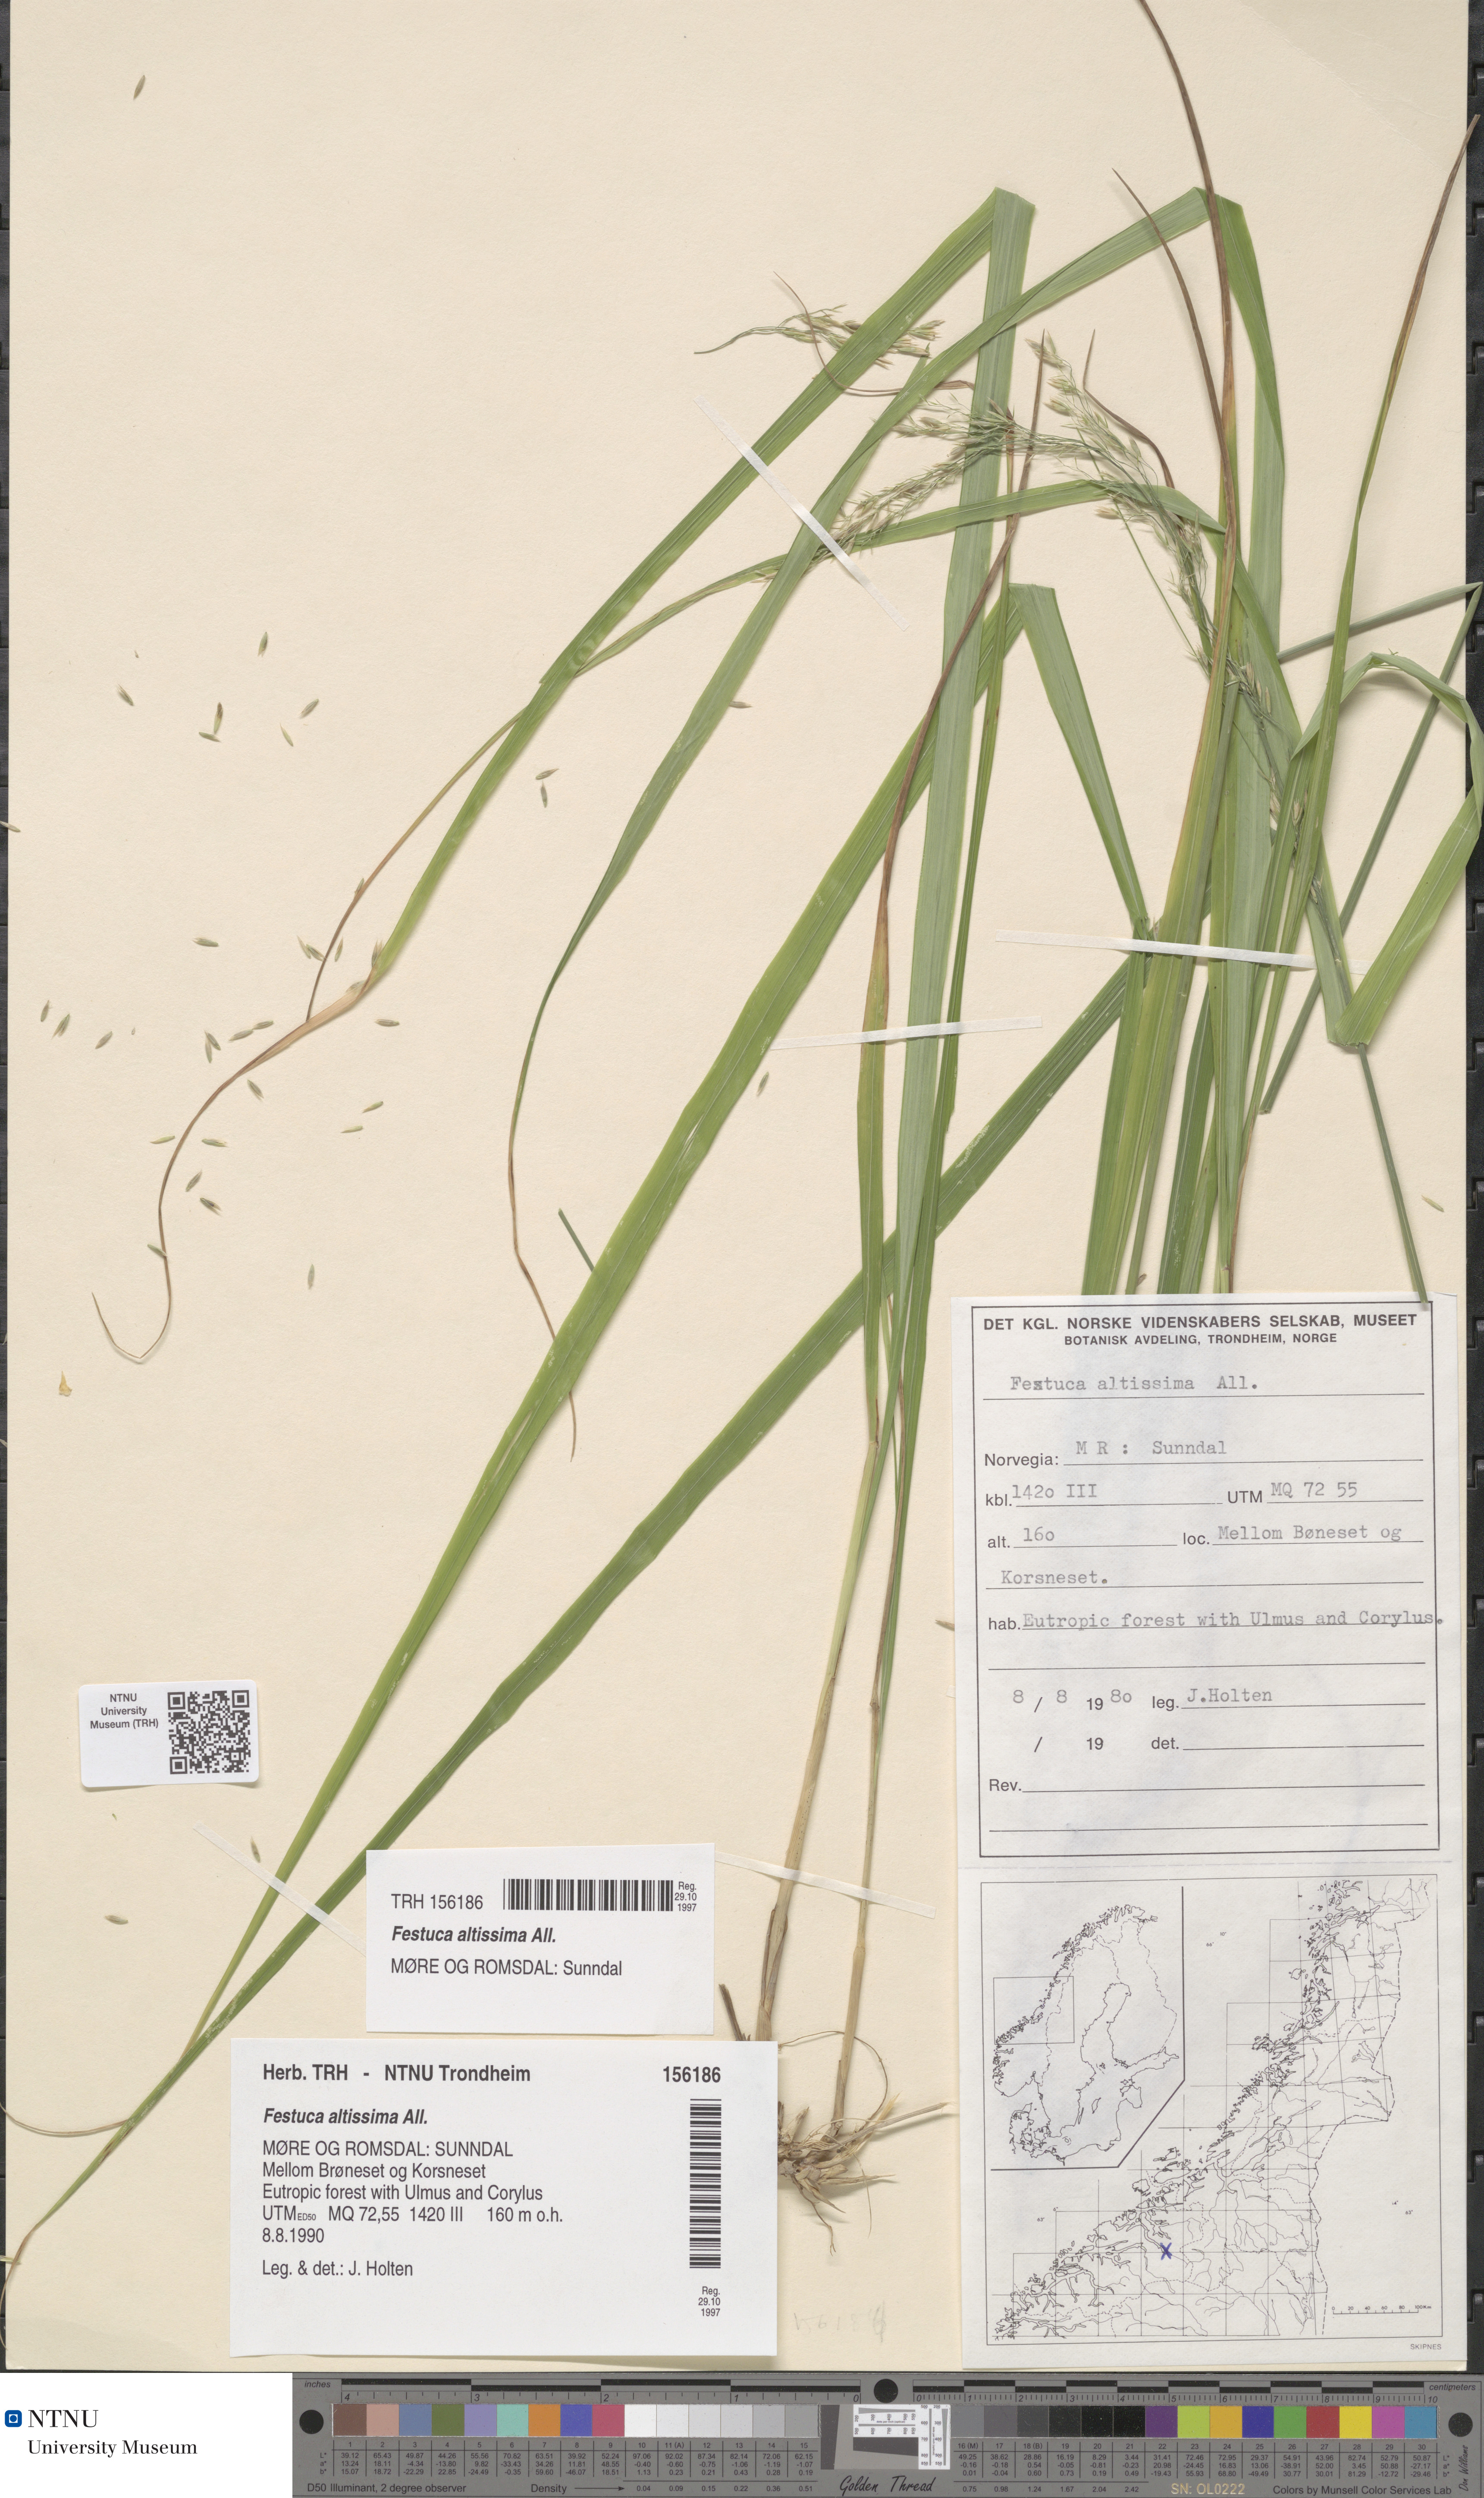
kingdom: Plantae
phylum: Tracheophyta
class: Liliopsida
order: Poales
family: Poaceae
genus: Festuca
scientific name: Festuca altissima
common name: Wood fescue
